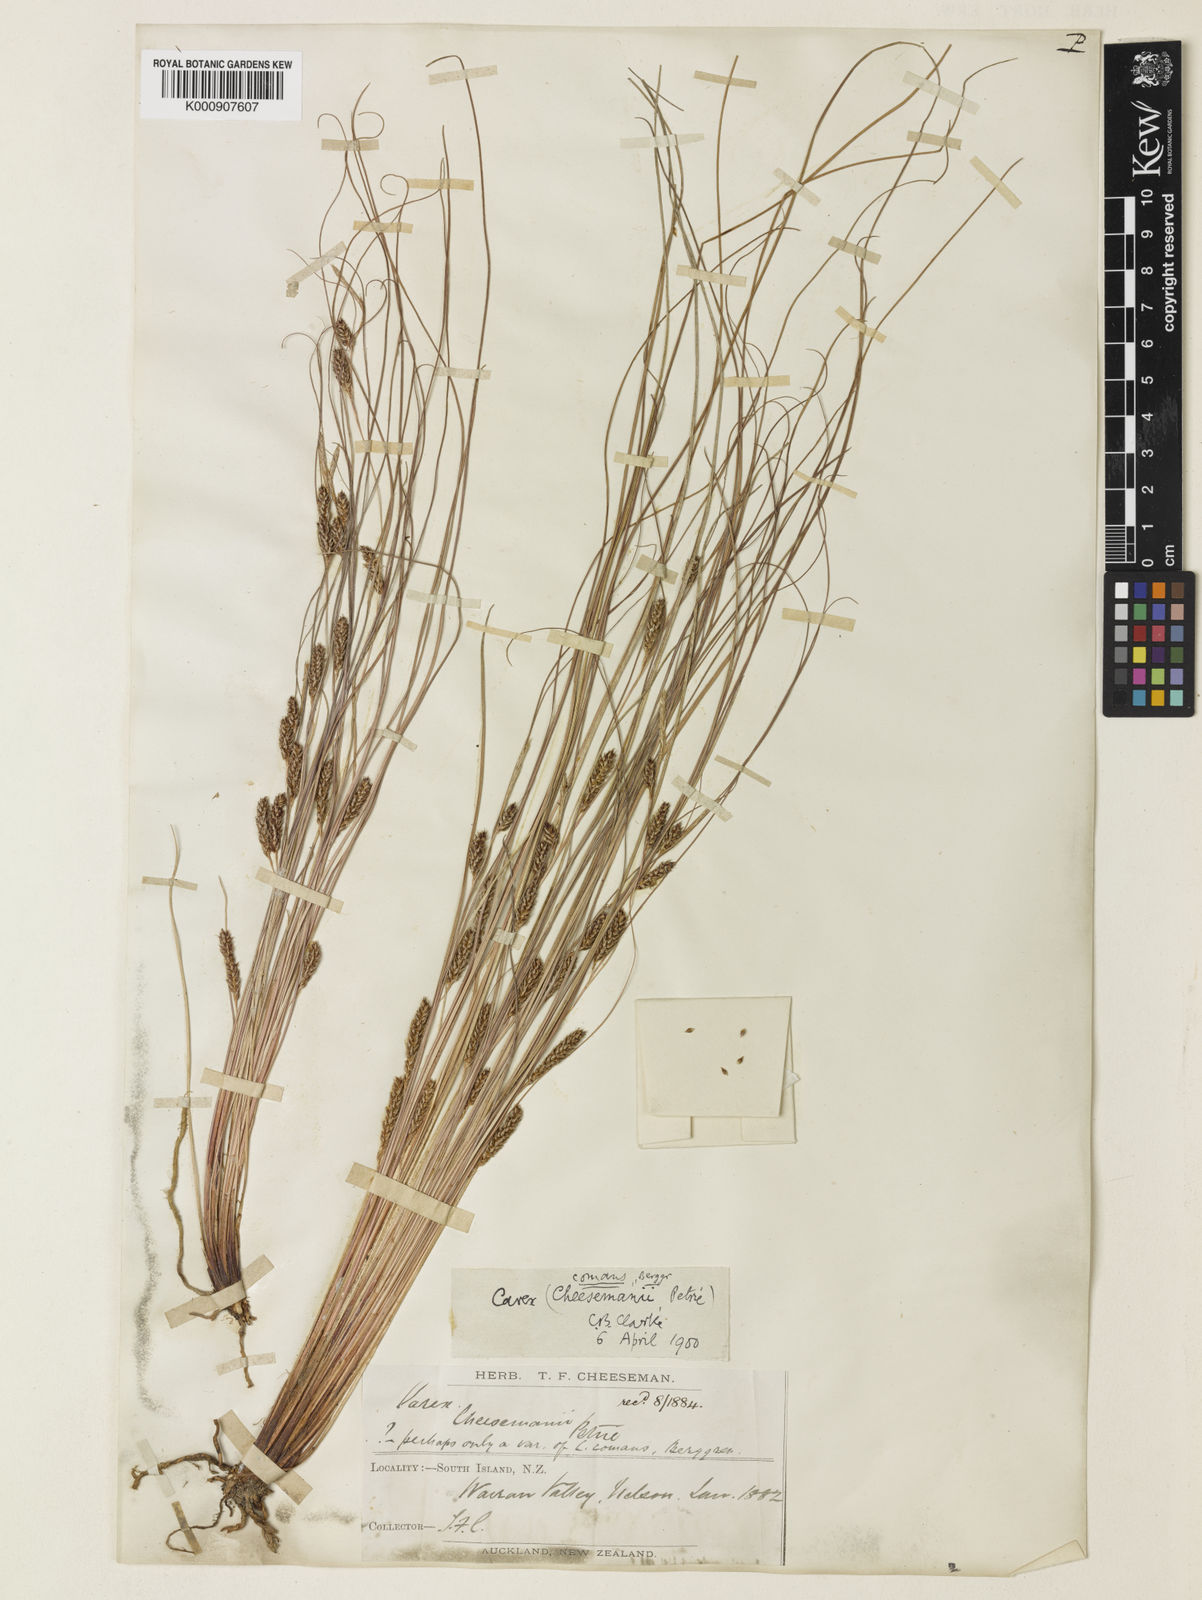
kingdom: Plantae
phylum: Tracheophyta
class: Liliopsida
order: Poales
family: Cyperaceae
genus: Carex
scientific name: Carex comans
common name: Longwood tussock
